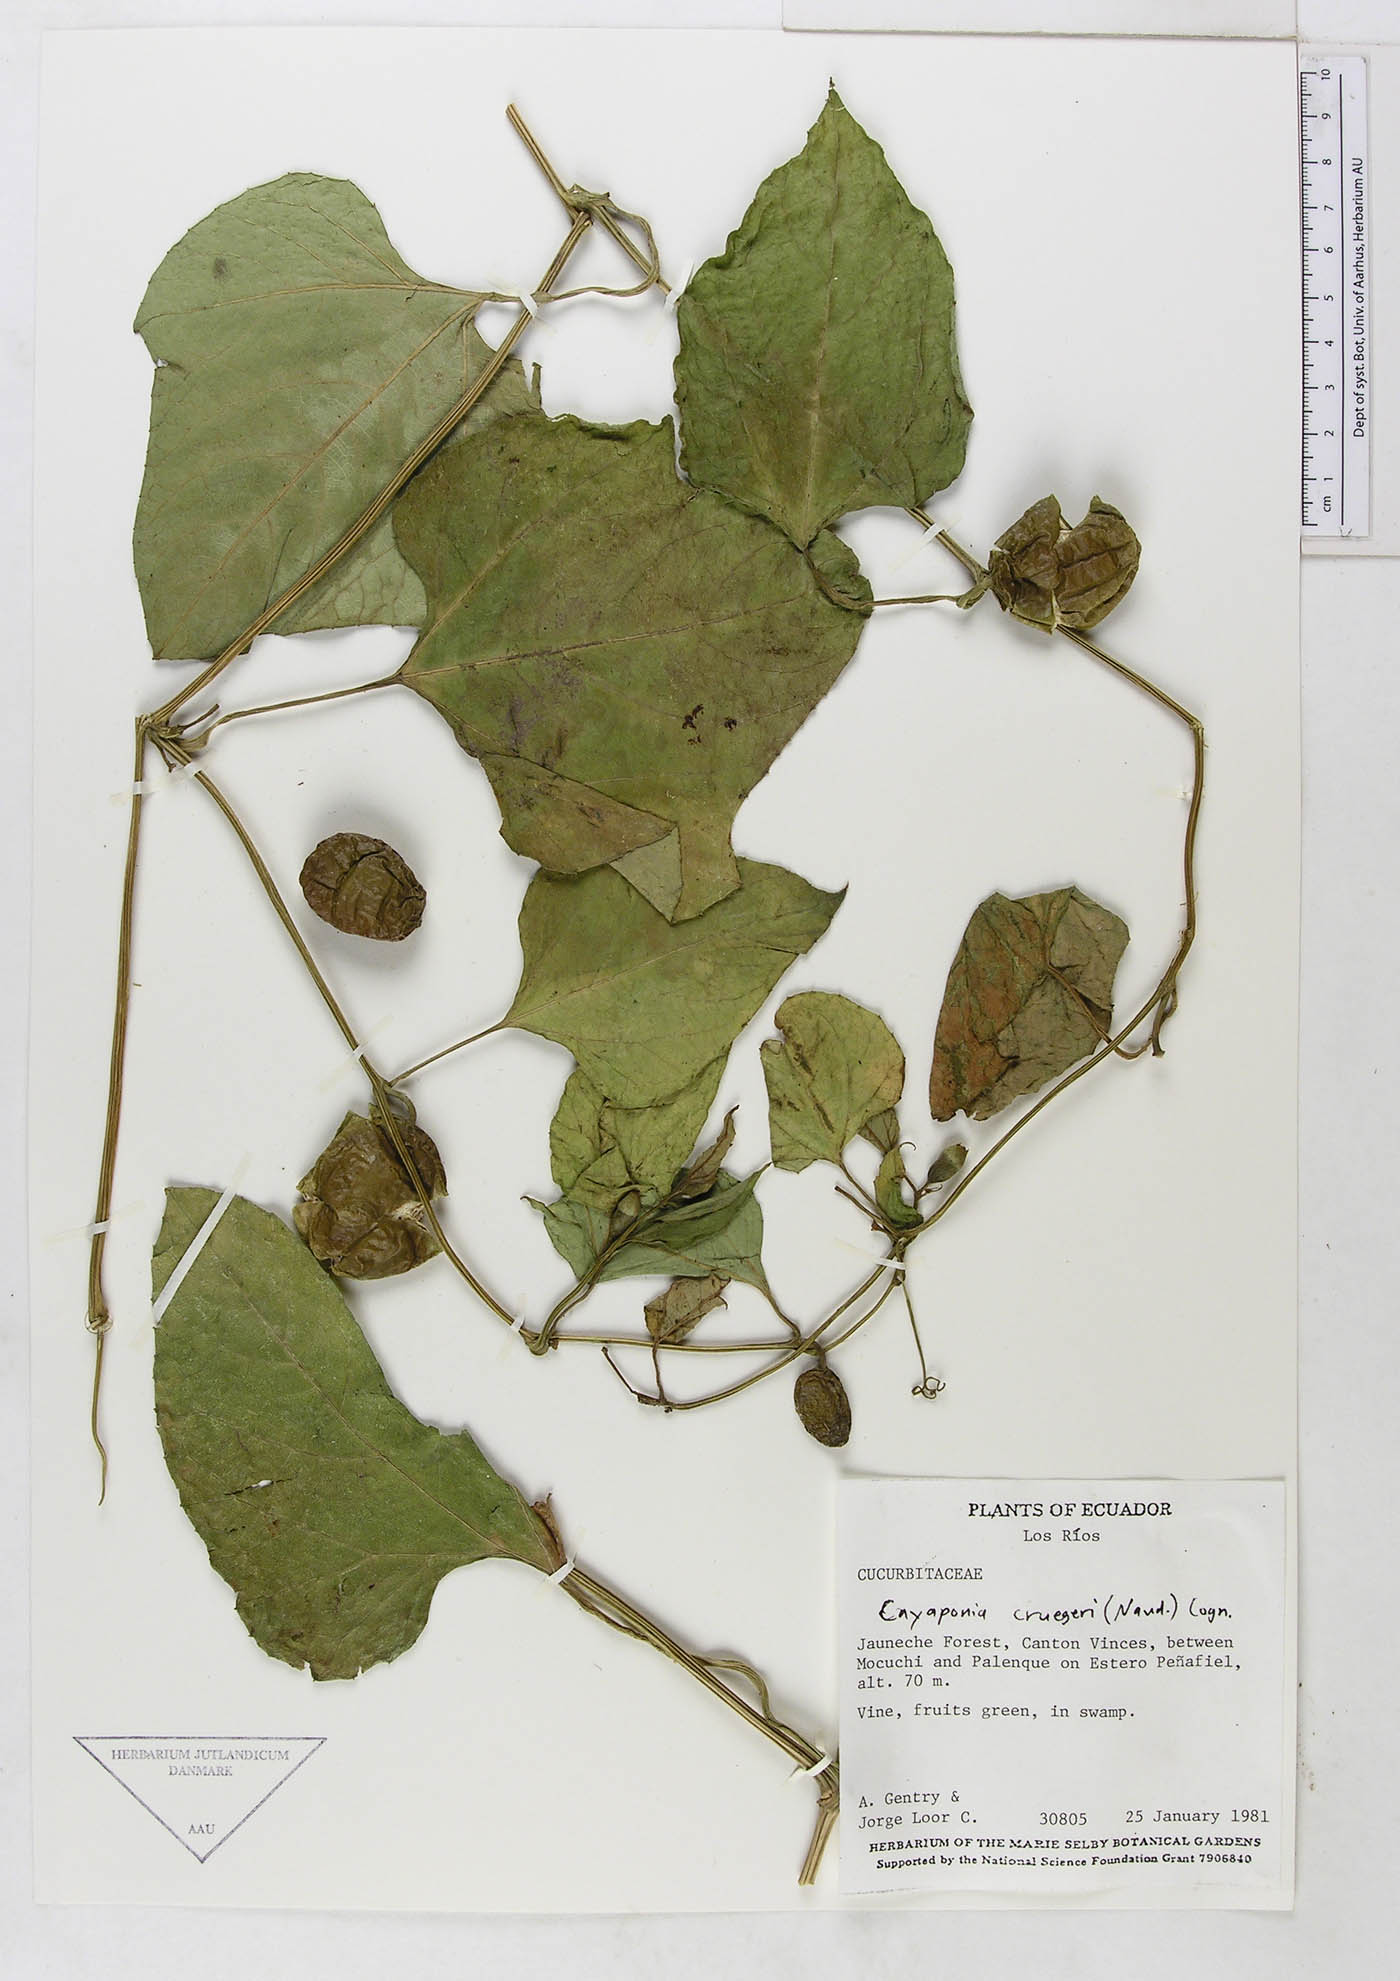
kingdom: Plantae
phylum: Tracheophyta
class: Magnoliopsida
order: Cucurbitales
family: Cucurbitaceae
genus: Cayaponia
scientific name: Cayaponia cruegeri
